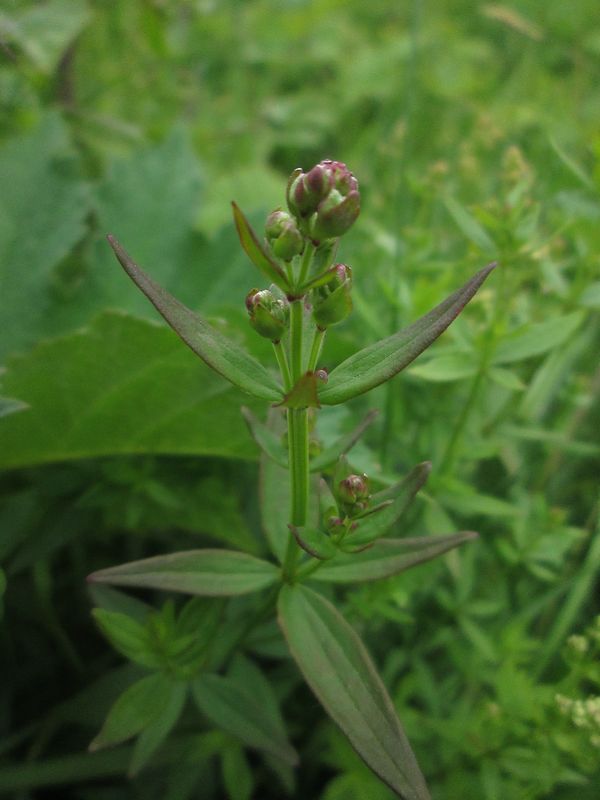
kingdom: Plantae
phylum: Tracheophyta
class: Magnoliopsida
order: Gentianales
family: Rubiaceae
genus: Galium
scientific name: Galium boreale
